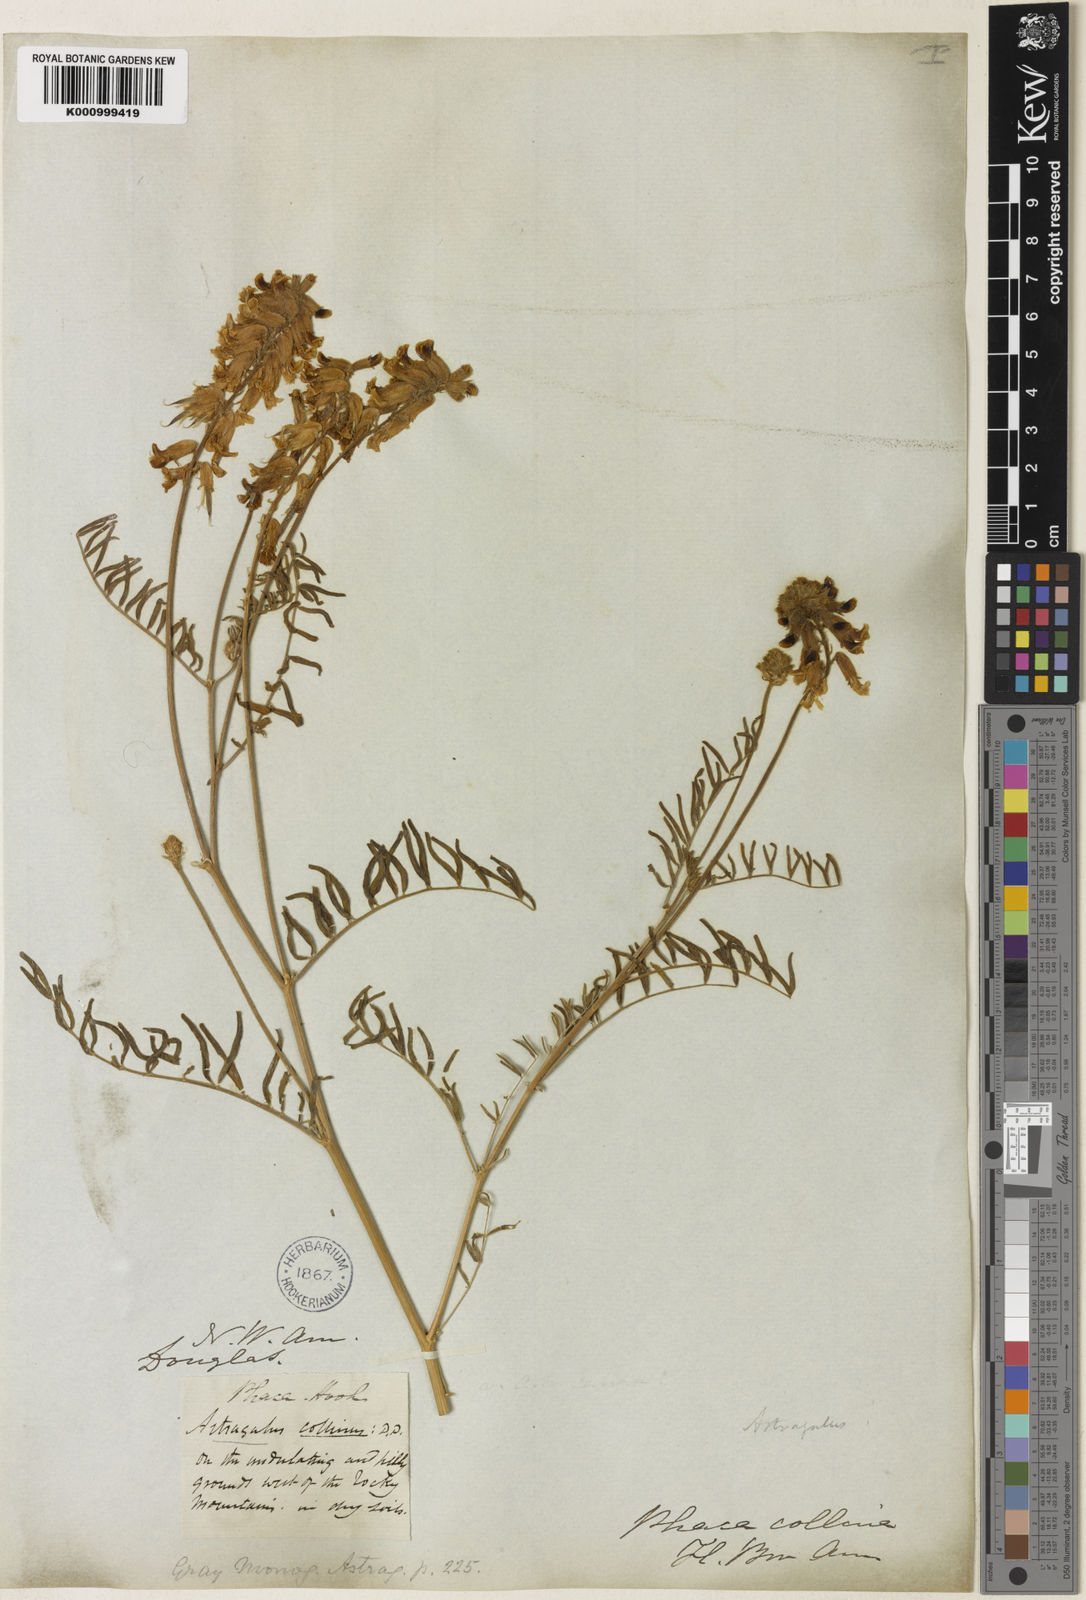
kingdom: Plantae
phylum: Tracheophyta
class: Magnoliopsida
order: Fabales
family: Fabaceae
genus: Astragalus
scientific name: Astragalus collinus
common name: Hill milk-vetch
